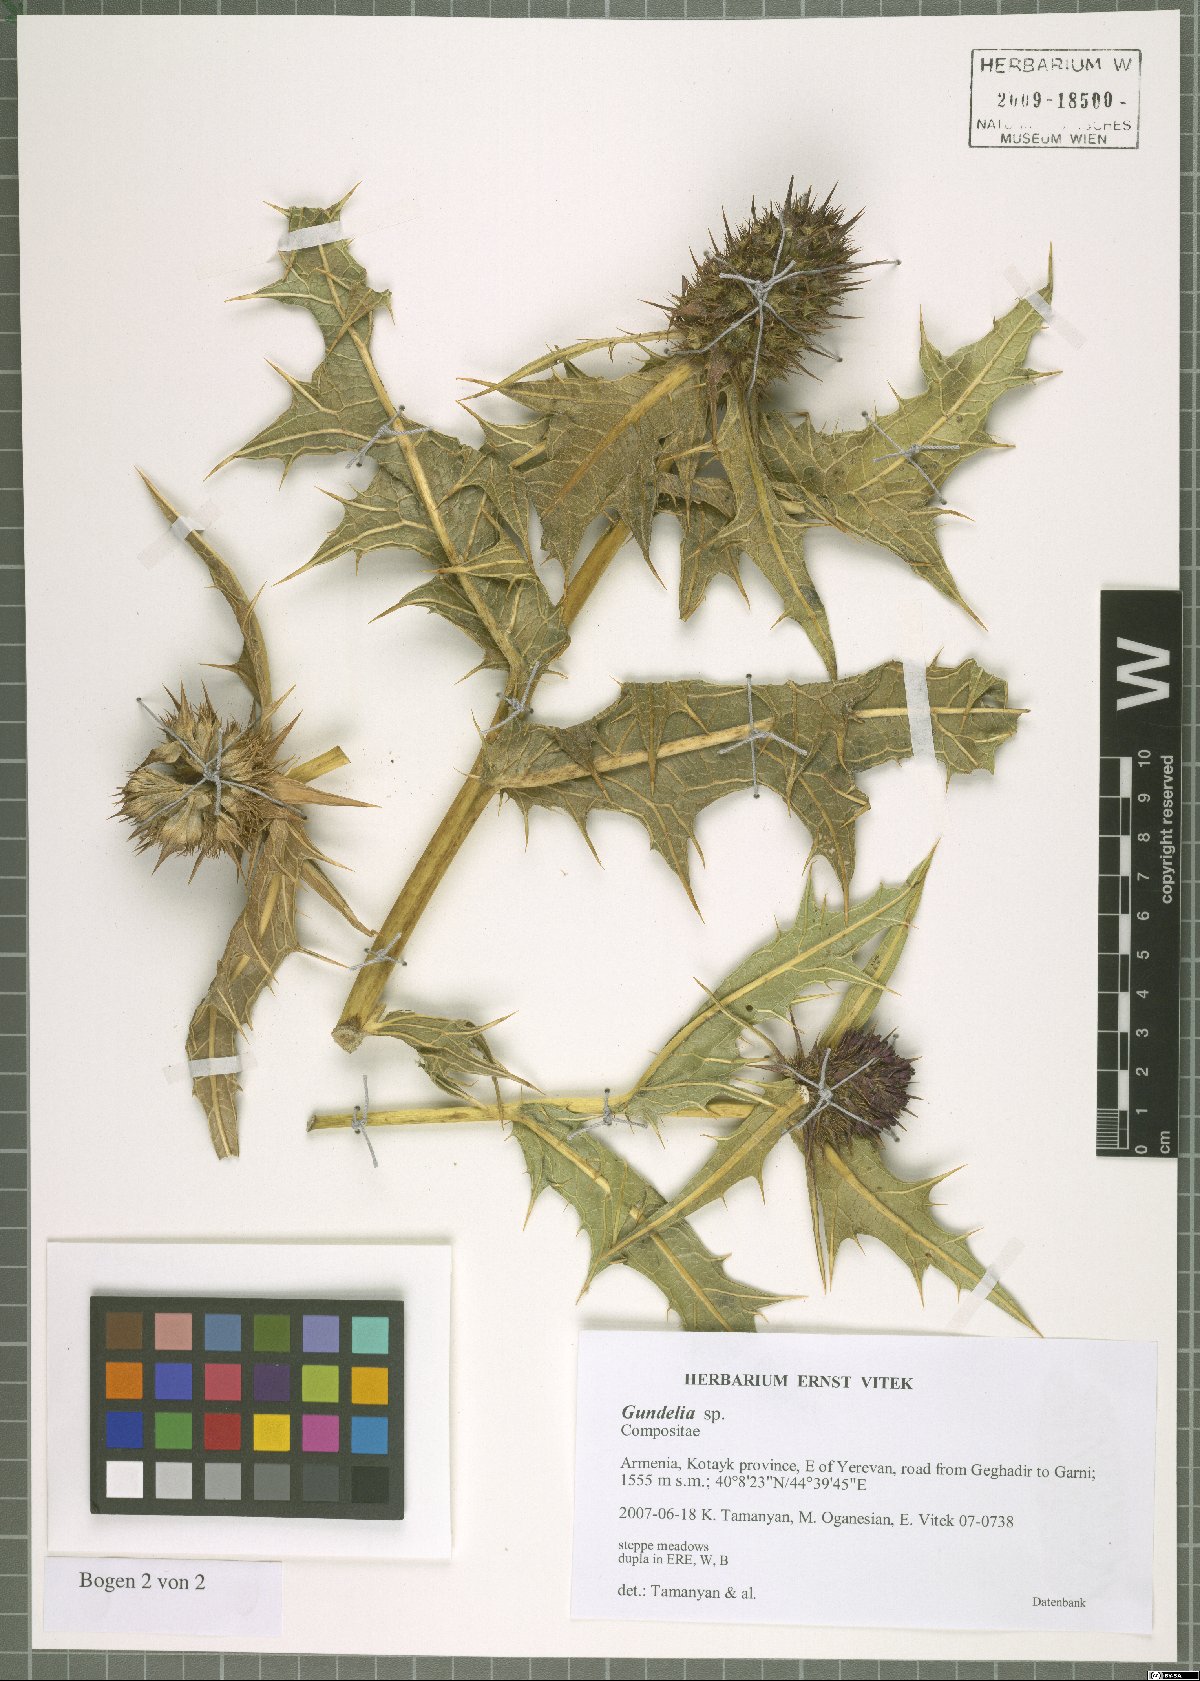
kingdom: Plantae
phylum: Tracheophyta
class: Magnoliopsida
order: Asterales
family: Asteraceae
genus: Gundelia
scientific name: Gundelia armeniaca
